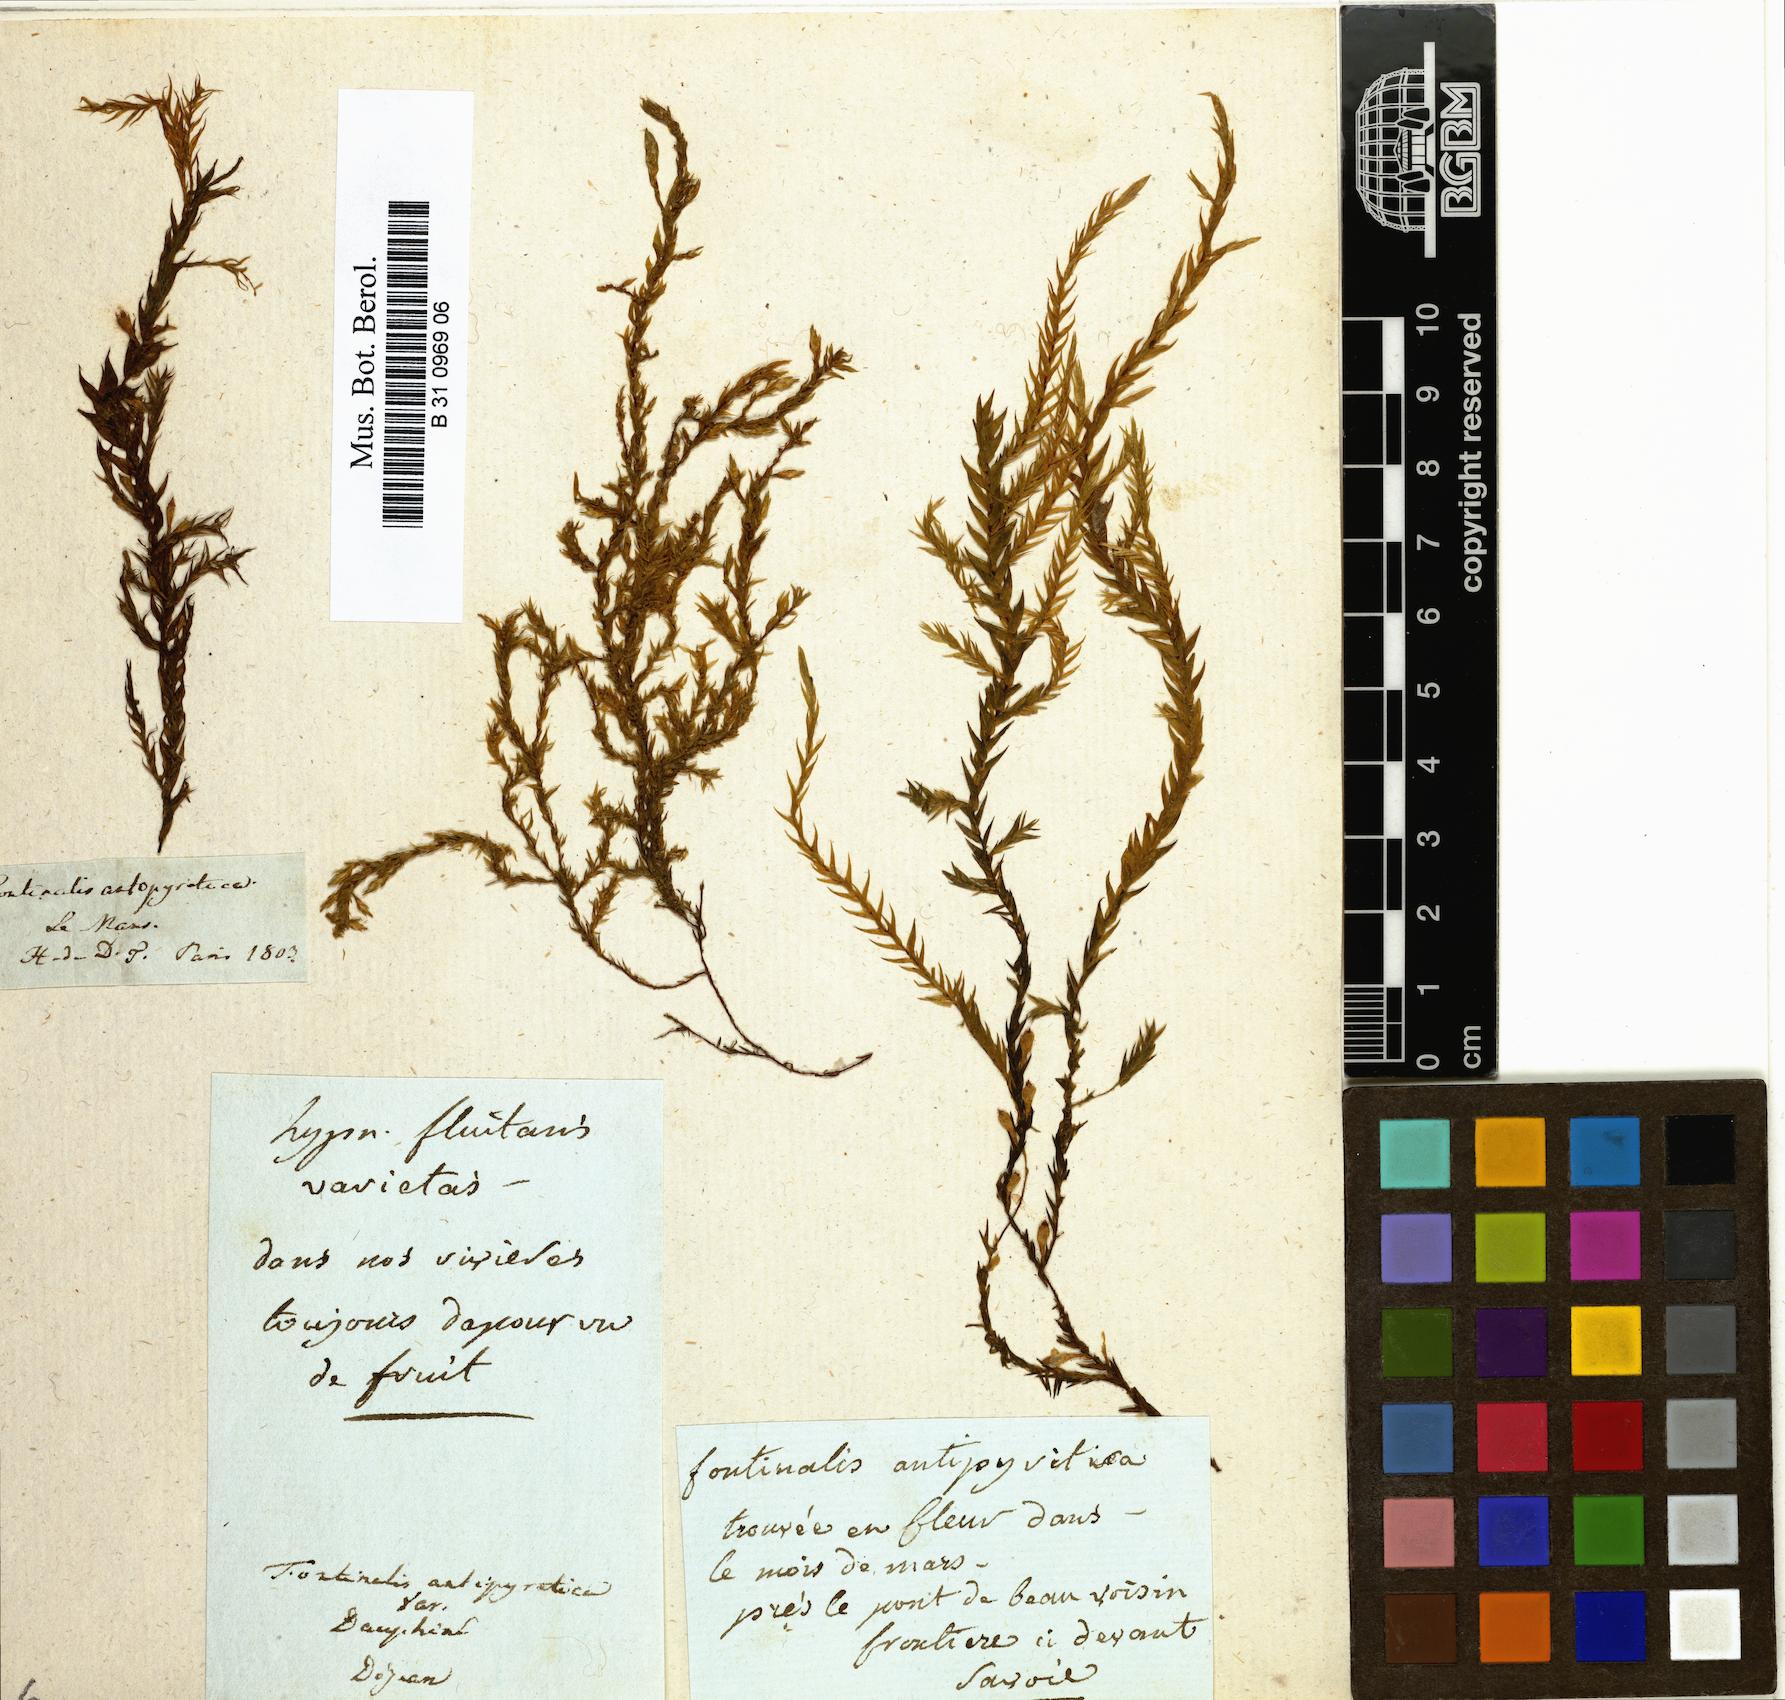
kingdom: Plantae
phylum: Bryophyta
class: Bryopsida
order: Hypnales
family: Fontinalaceae
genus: Fontinalis
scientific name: Fontinalis antipyretica
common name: Greater water-moss
